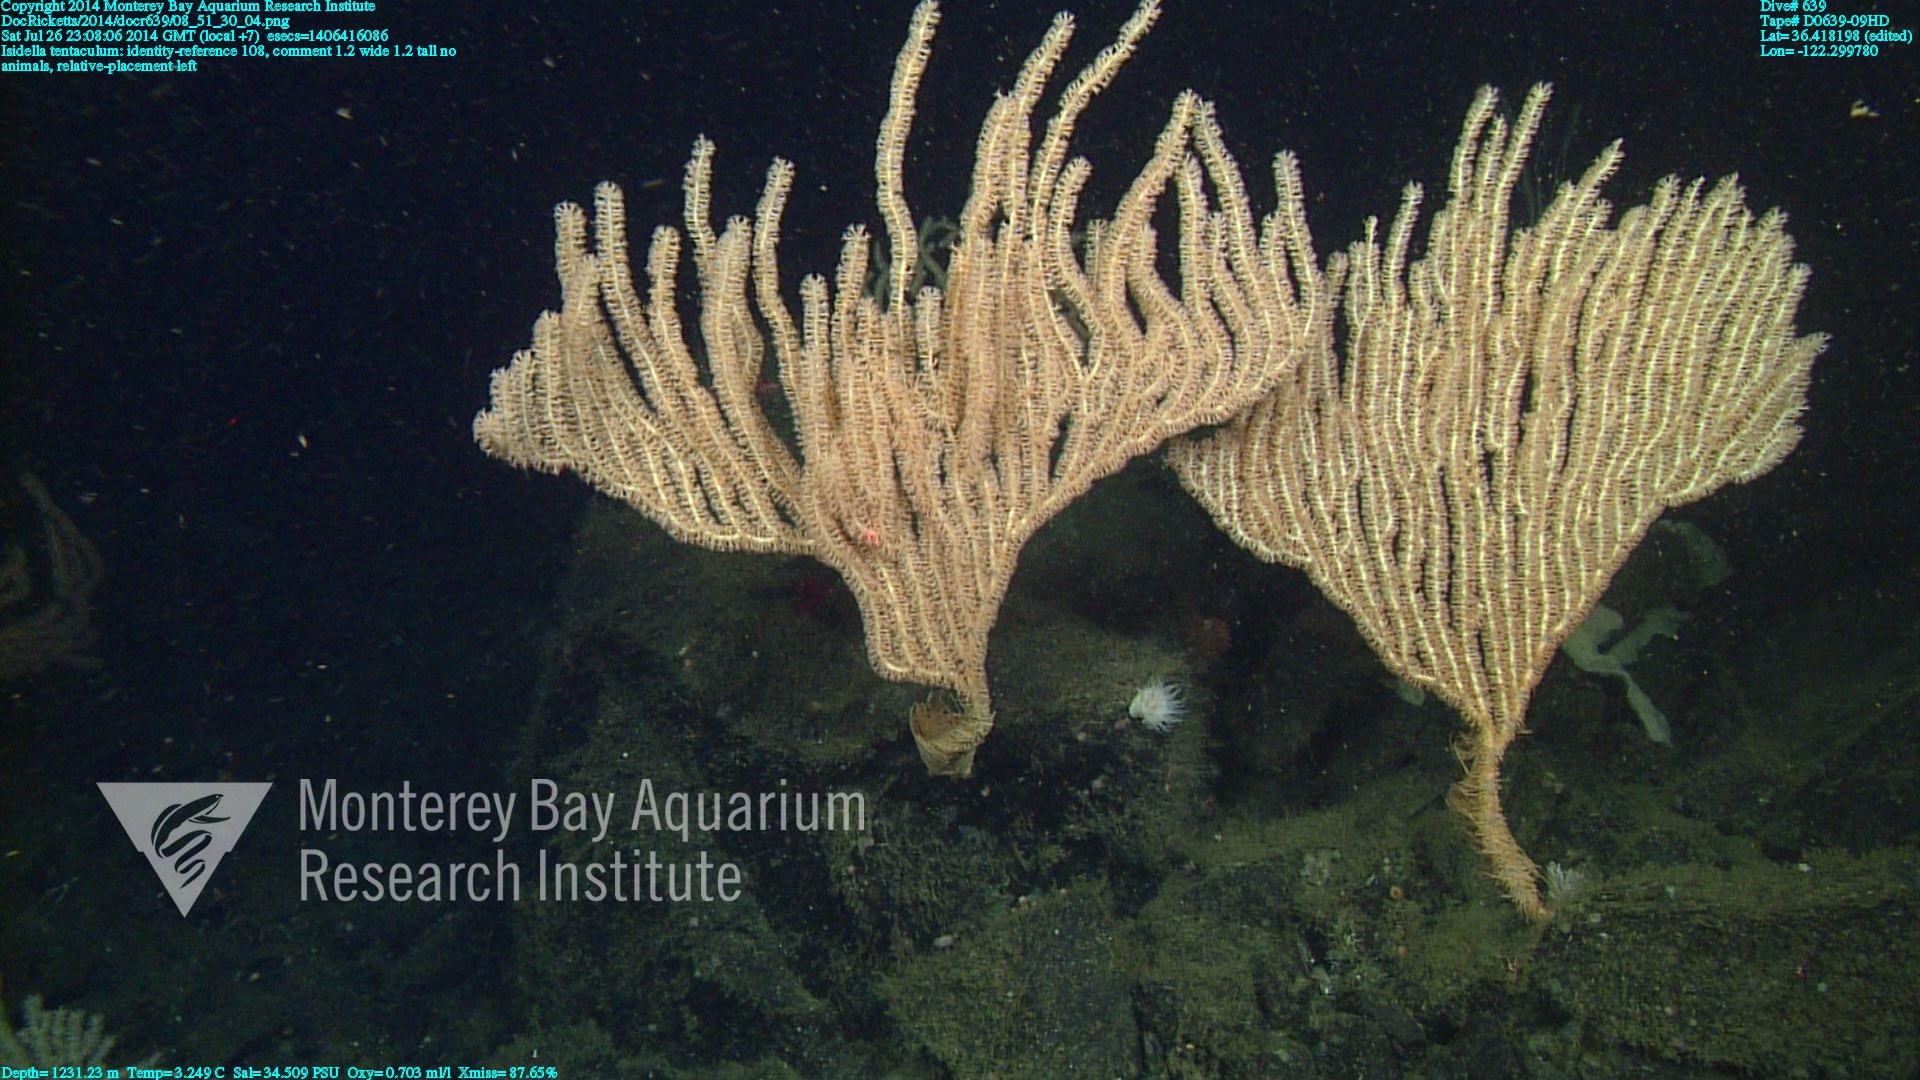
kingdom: Animalia
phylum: Cnidaria
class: Anthozoa
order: Scleralcyonacea
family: Keratoisididae
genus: Isidella
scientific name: Isidella tentaculum
